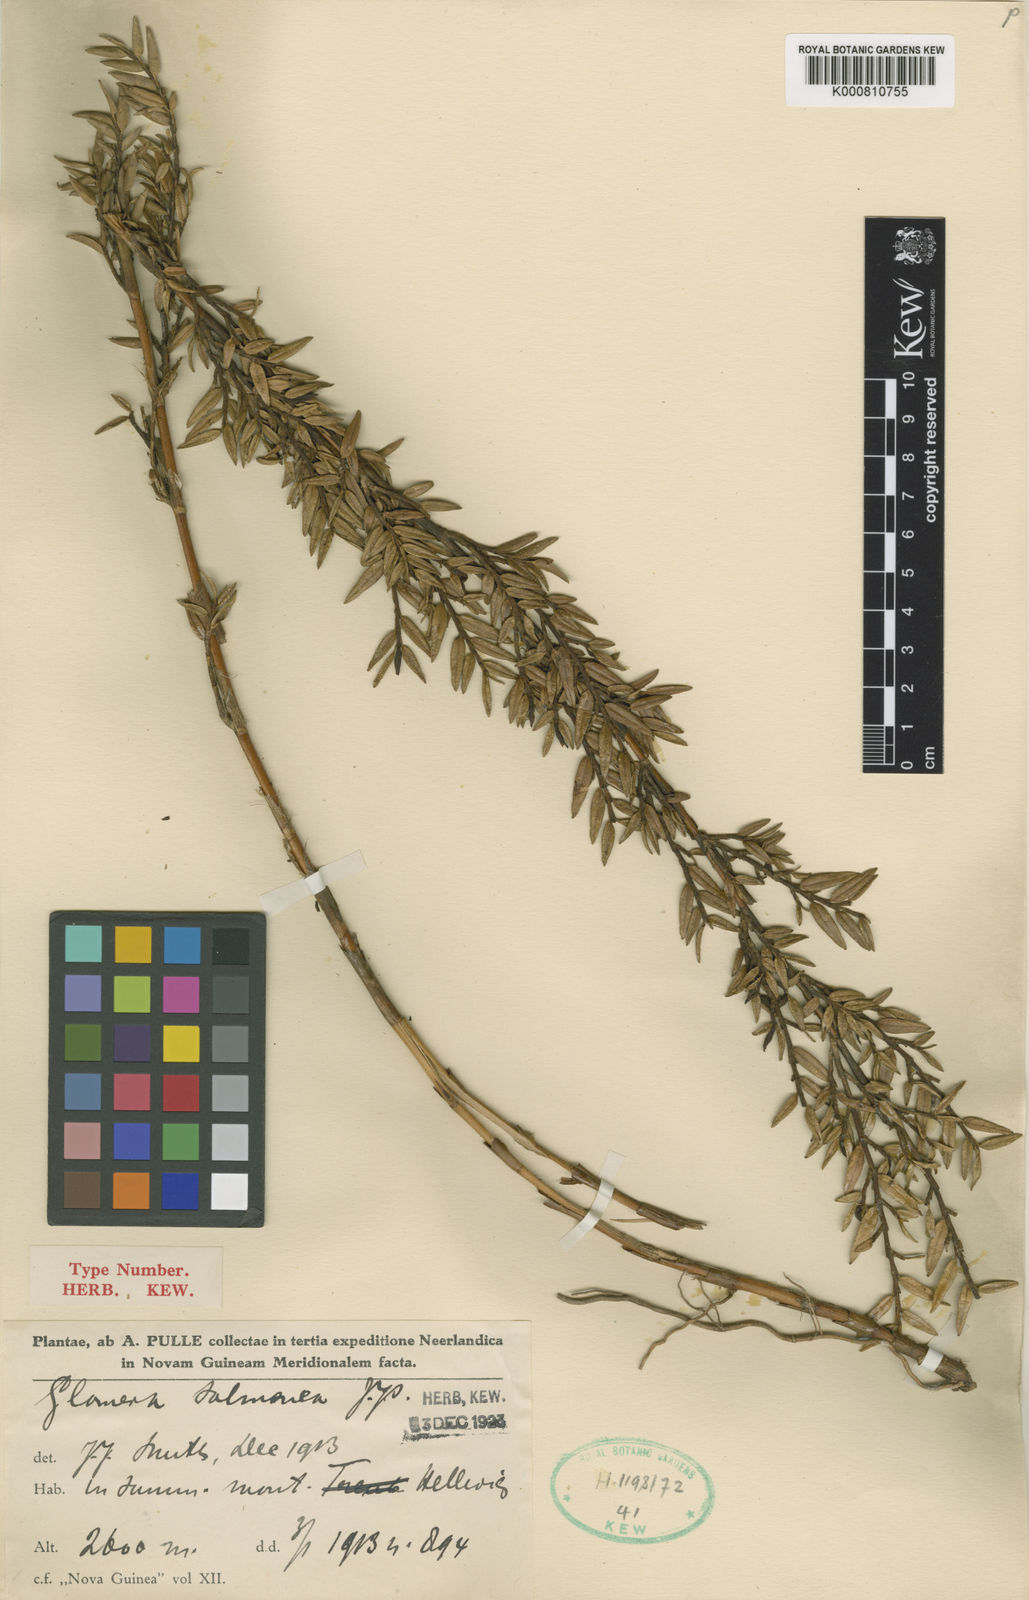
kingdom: Plantae
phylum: Tracheophyta
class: Liliopsida
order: Asparagales
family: Orchidaceae
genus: Glomera
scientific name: Glomera salmonea
